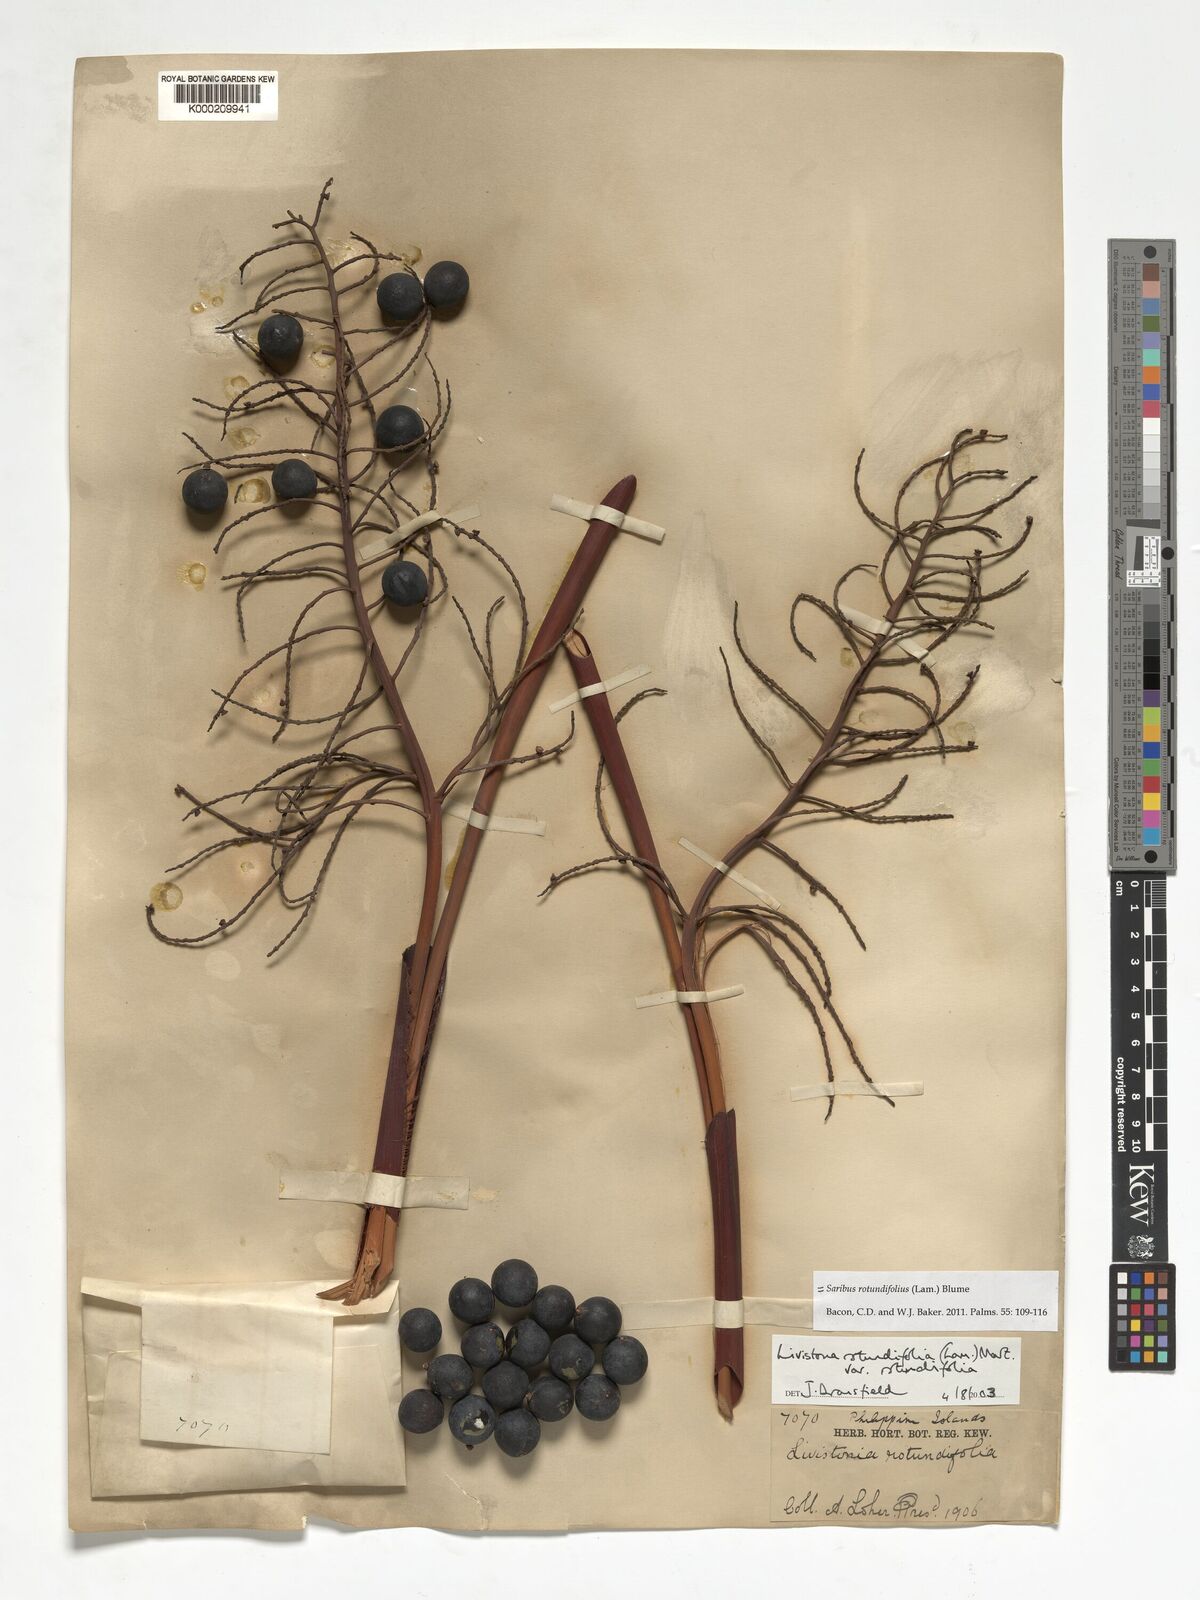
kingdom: Plantae
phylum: Tracheophyta
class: Liliopsida
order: Arecales
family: Arecaceae
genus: Saribus
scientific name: Saribus rotundifolius
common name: Palm
